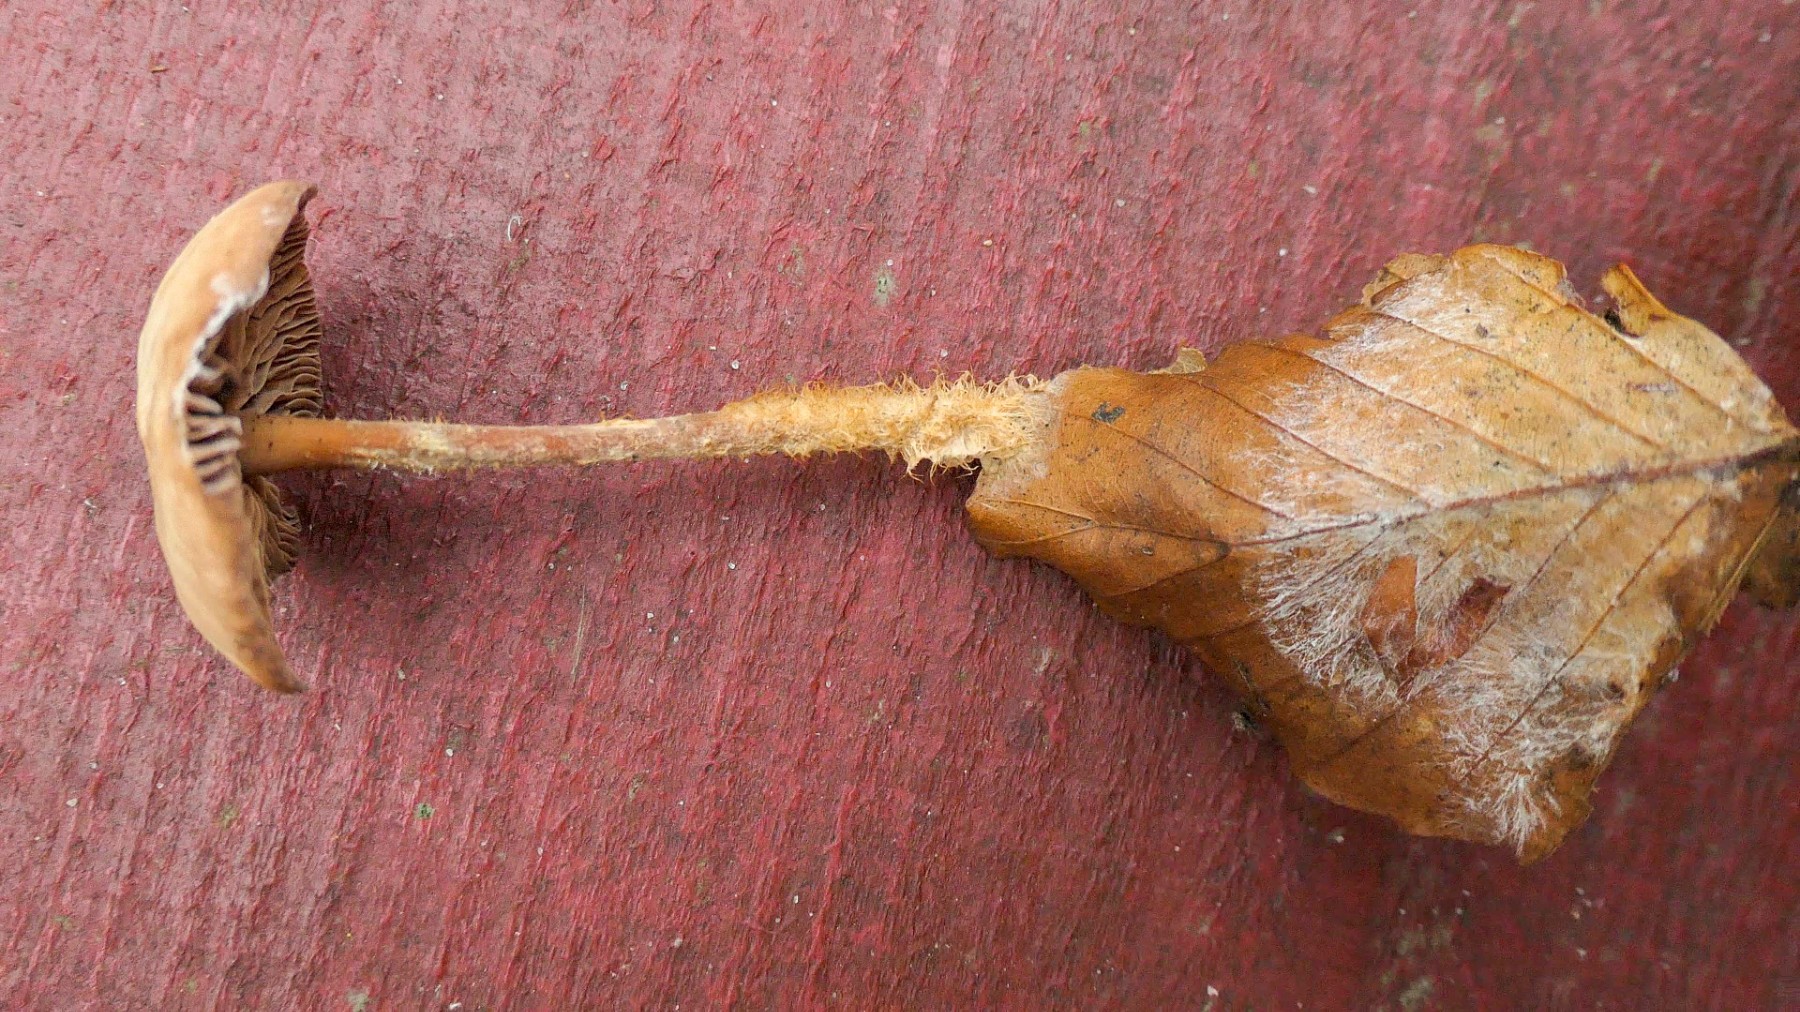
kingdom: Fungi
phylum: Basidiomycota
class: Agaricomycetes
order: Agaricales
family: Omphalotaceae
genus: Gymnopus
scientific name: Gymnopus fagiphilus
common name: bøgeløv-fladhat
